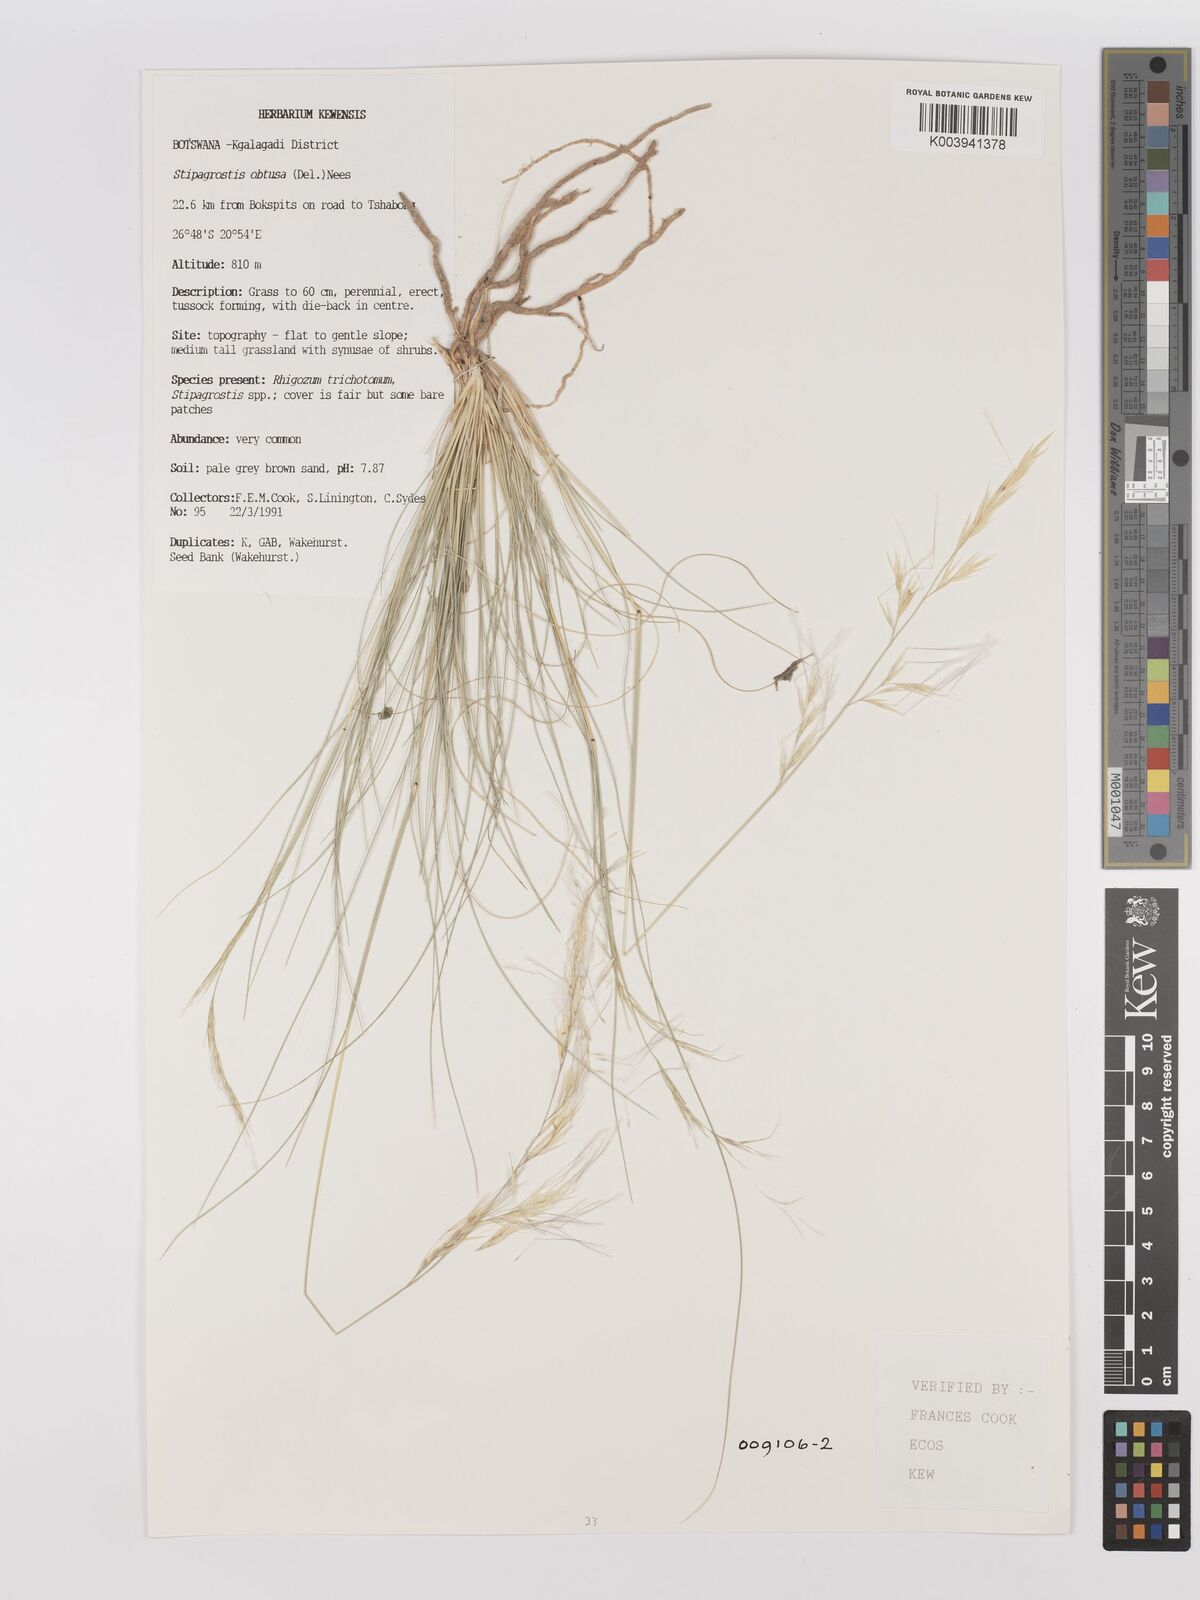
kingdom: Plantae
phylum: Tracheophyta
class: Liliopsida
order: Poales
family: Poaceae
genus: Stipagrostis
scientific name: Stipagrostis obtusa
